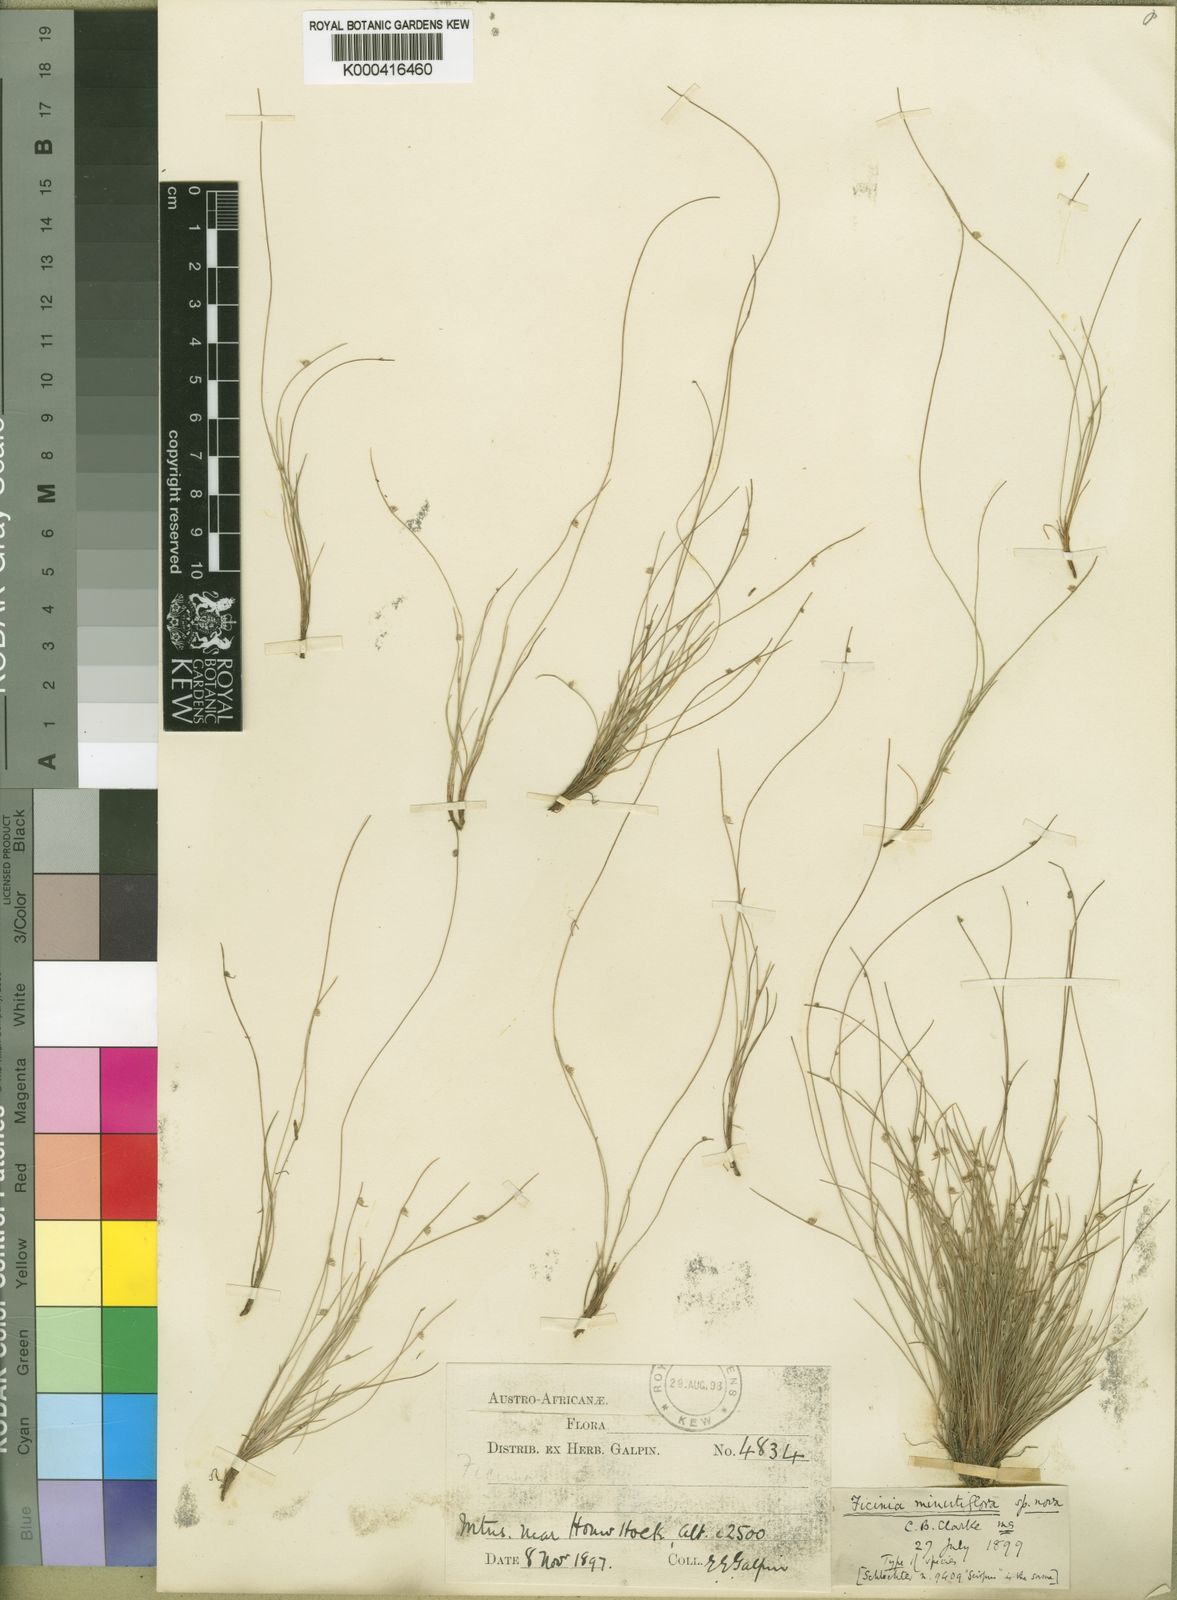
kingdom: Plantae
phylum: Tracheophyta
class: Liliopsida
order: Poales
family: Cyperaceae
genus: Ficinia
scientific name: Ficinia minutiflora
